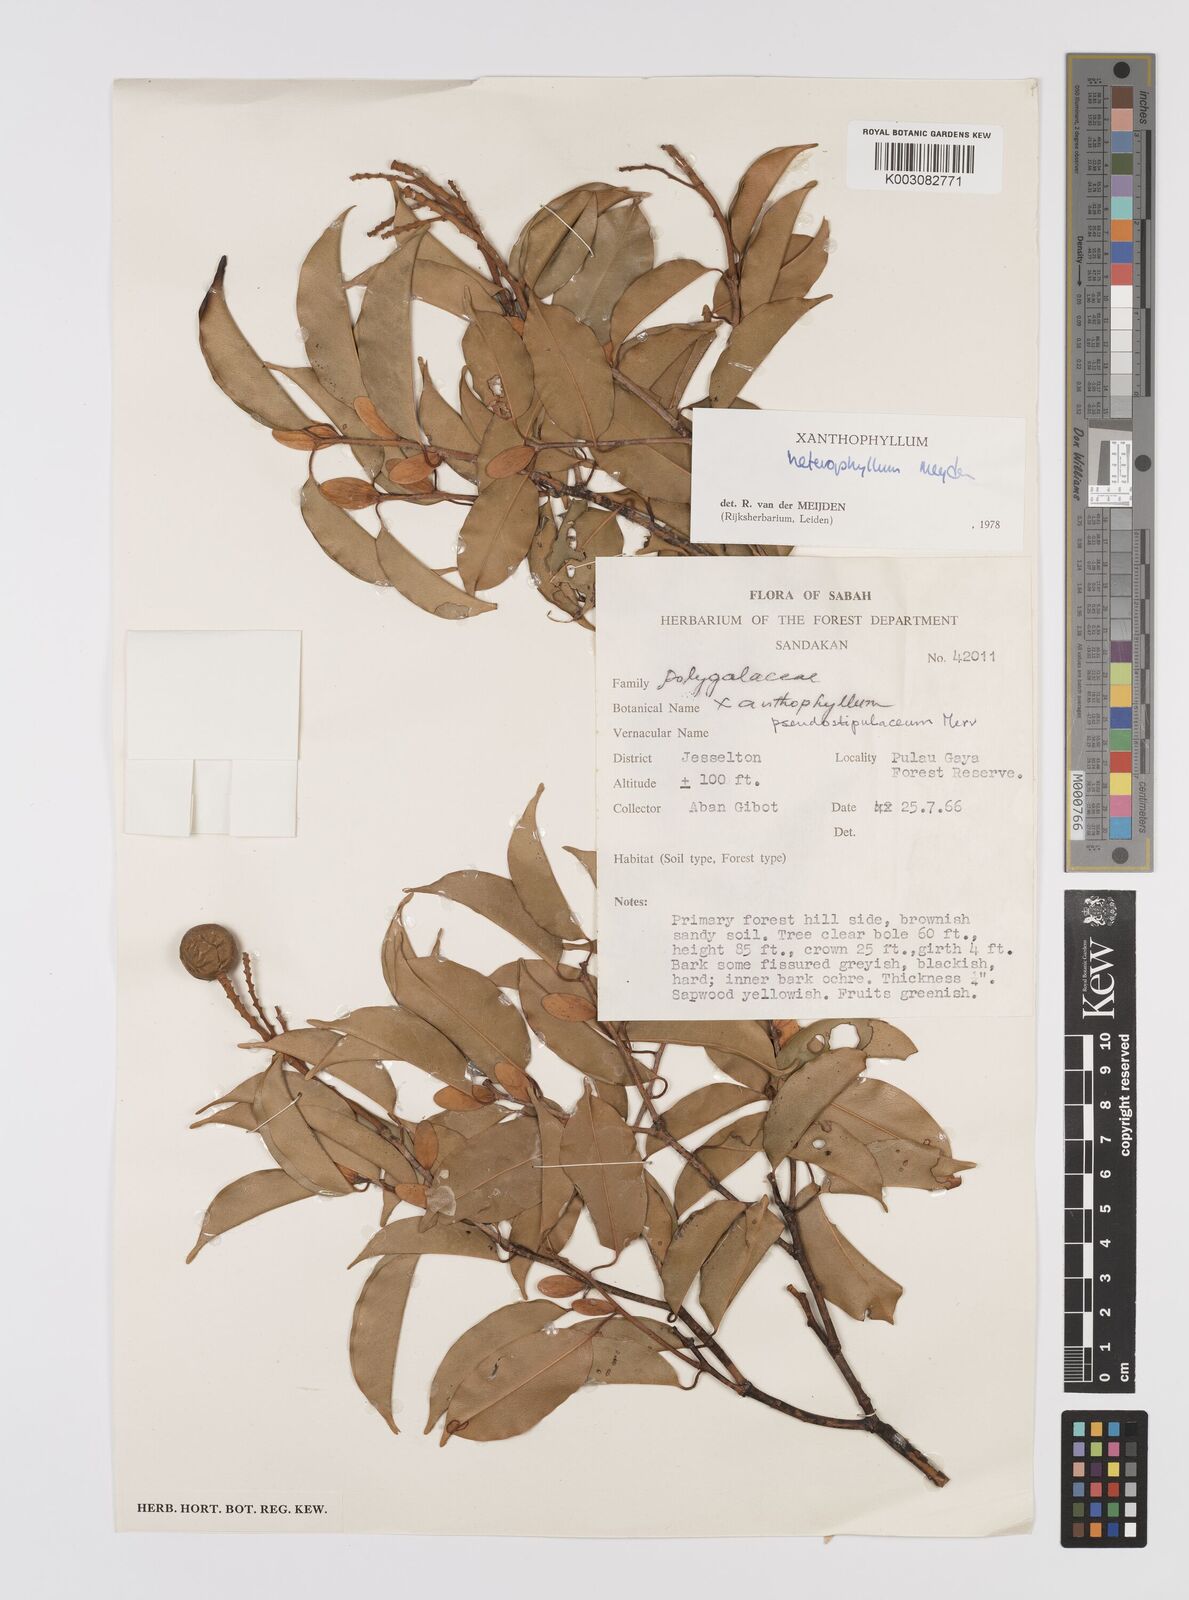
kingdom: Plantae
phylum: Tracheophyta
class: Magnoliopsida
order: Fabales
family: Polygalaceae
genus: Xanthophyllum
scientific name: Xanthophyllum heterophyllum
